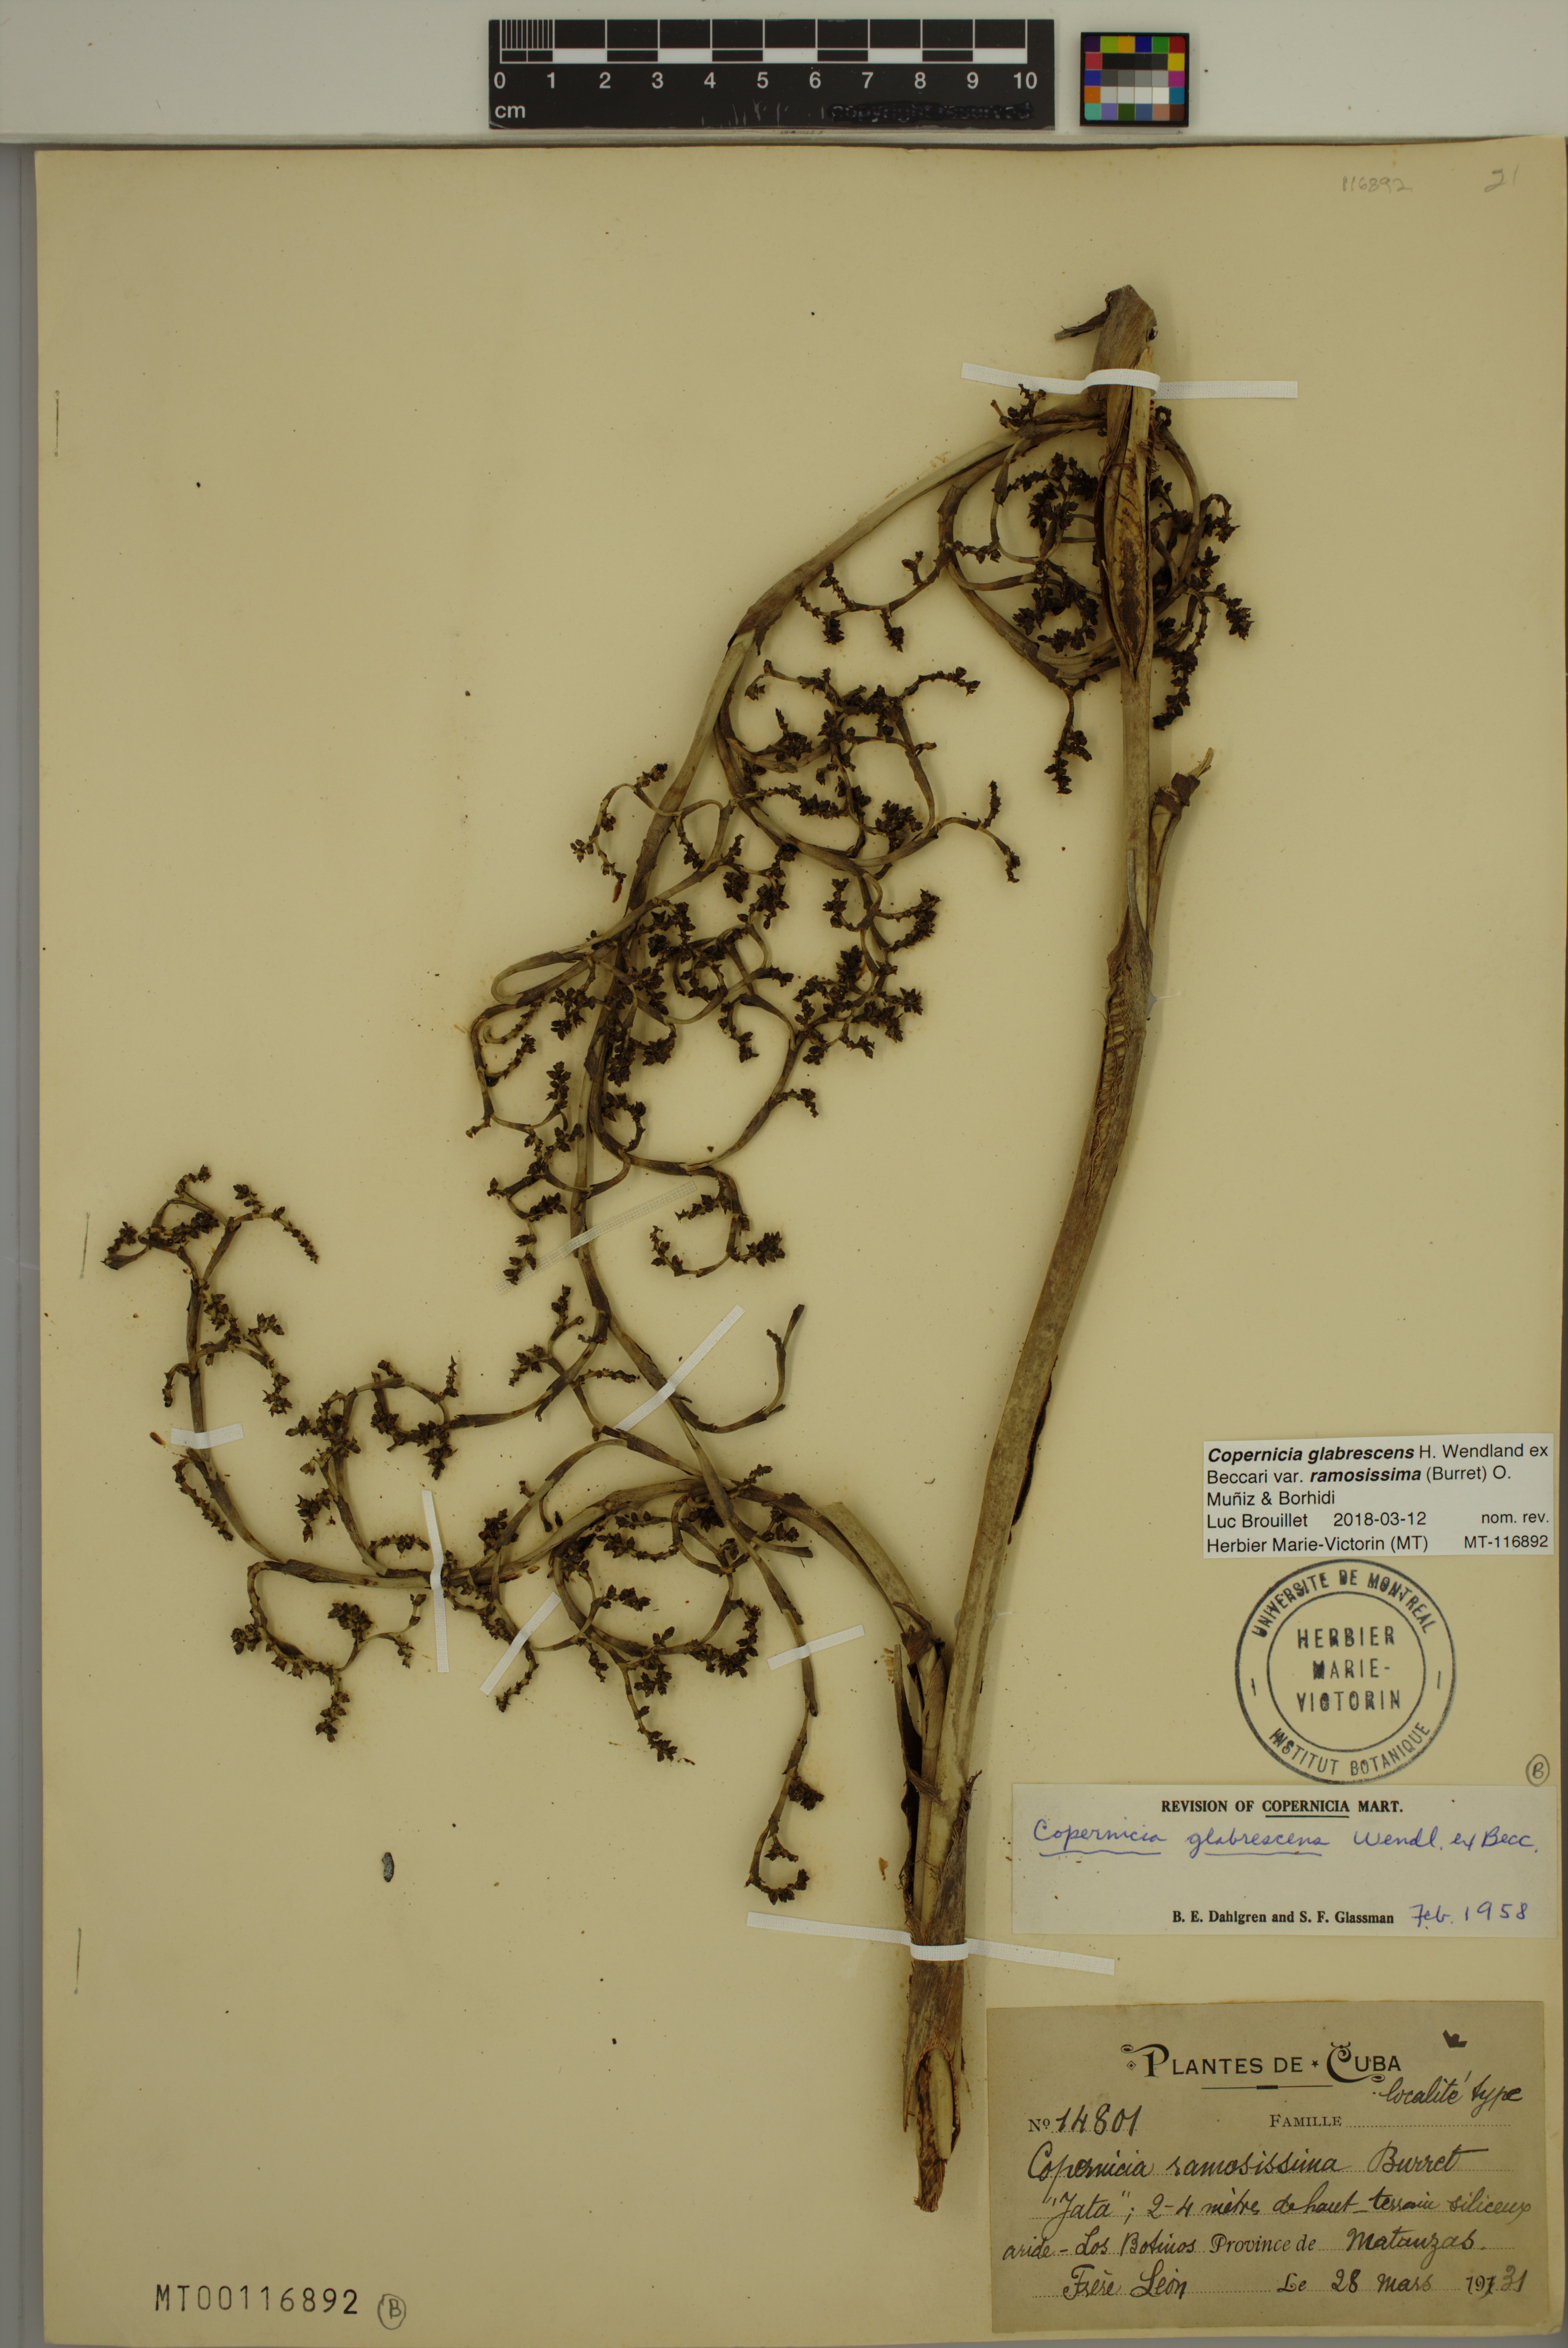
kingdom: Plantae
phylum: Tracheophyta
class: Liliopsida
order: Arecales
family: Arecaceae
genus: Copernicia
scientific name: Copernicia glabrescens
